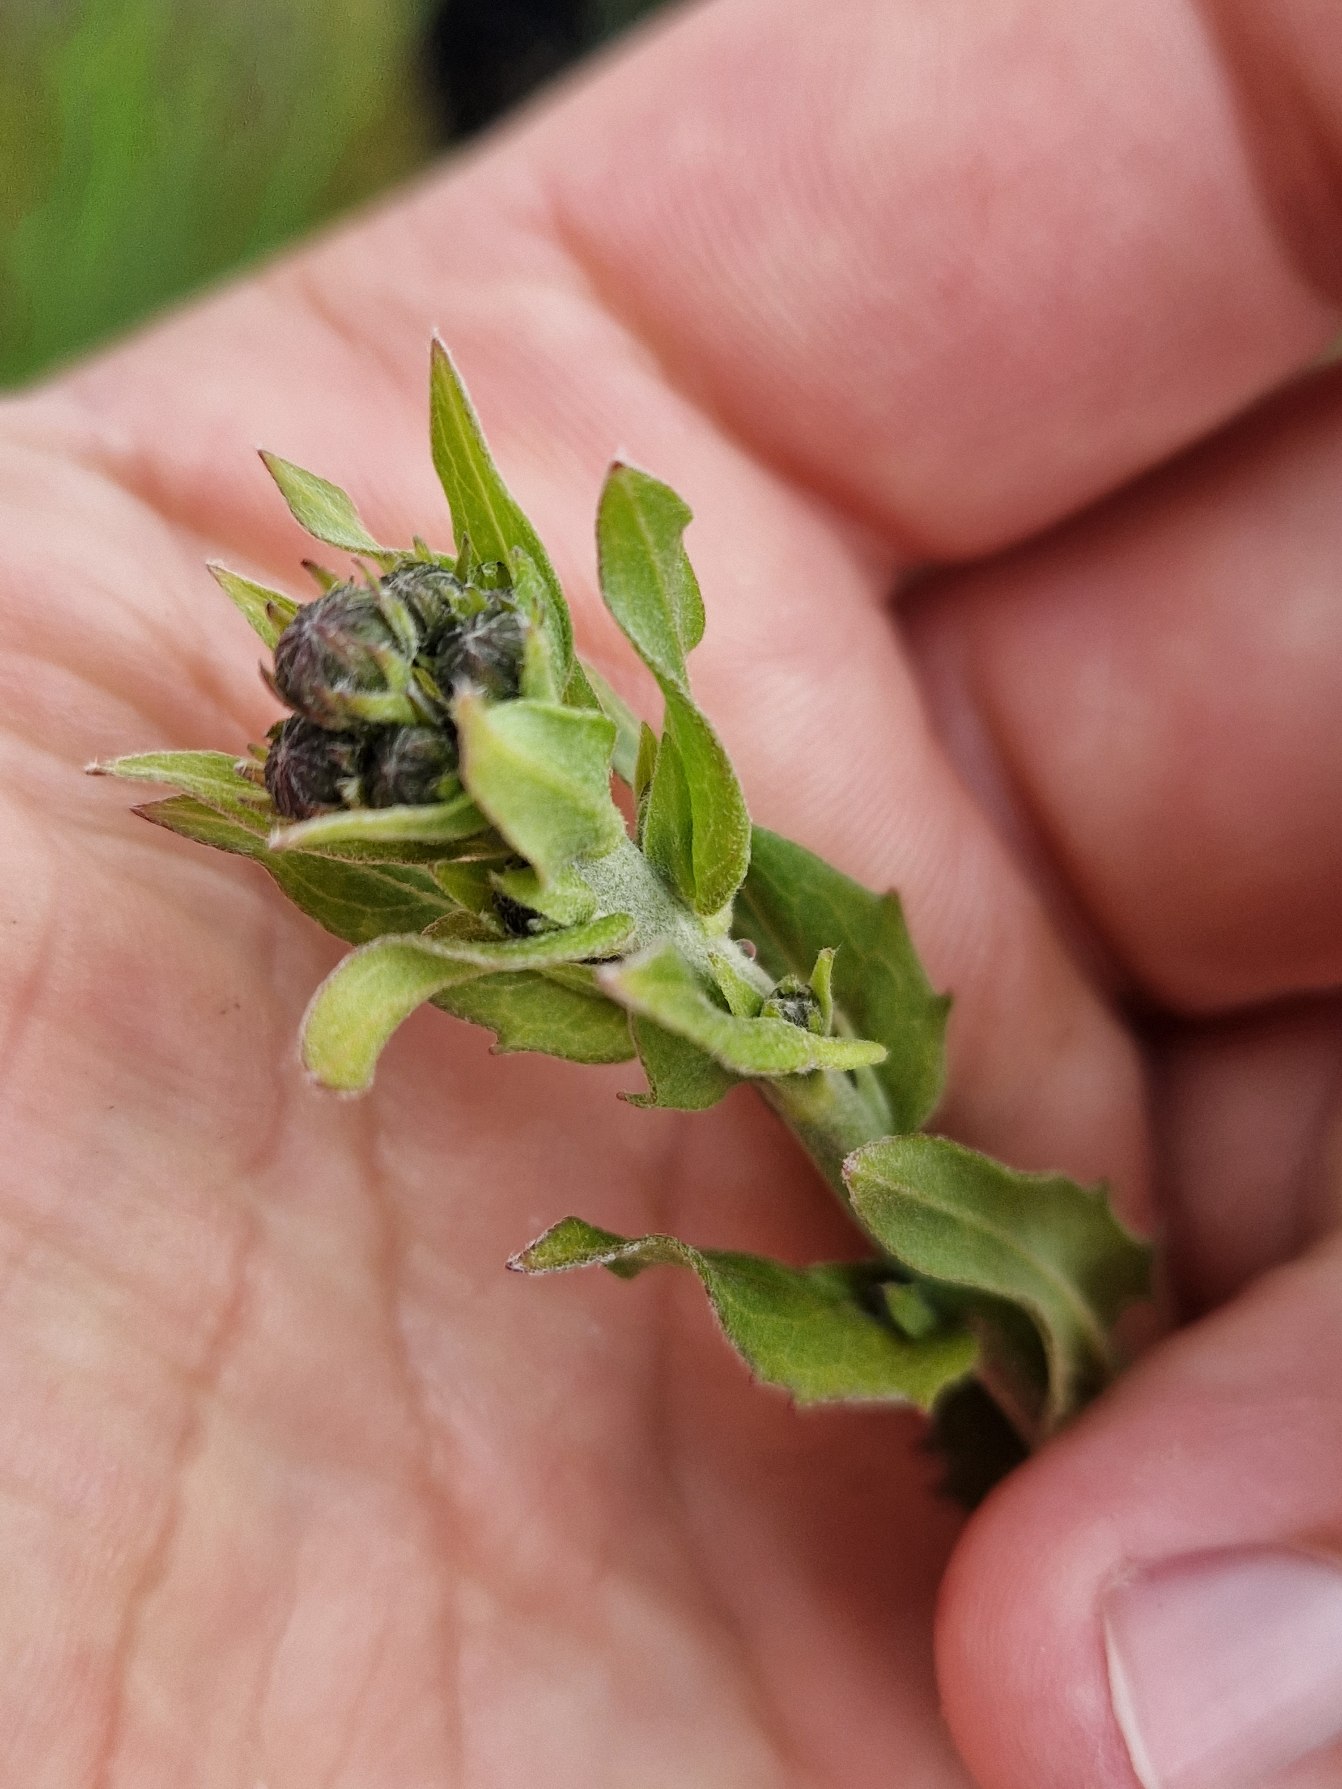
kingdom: Plantae
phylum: Tracheophyta
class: Magnoliopsida
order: Asterales
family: Asteraceae
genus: Hieracium
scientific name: Hieracium
